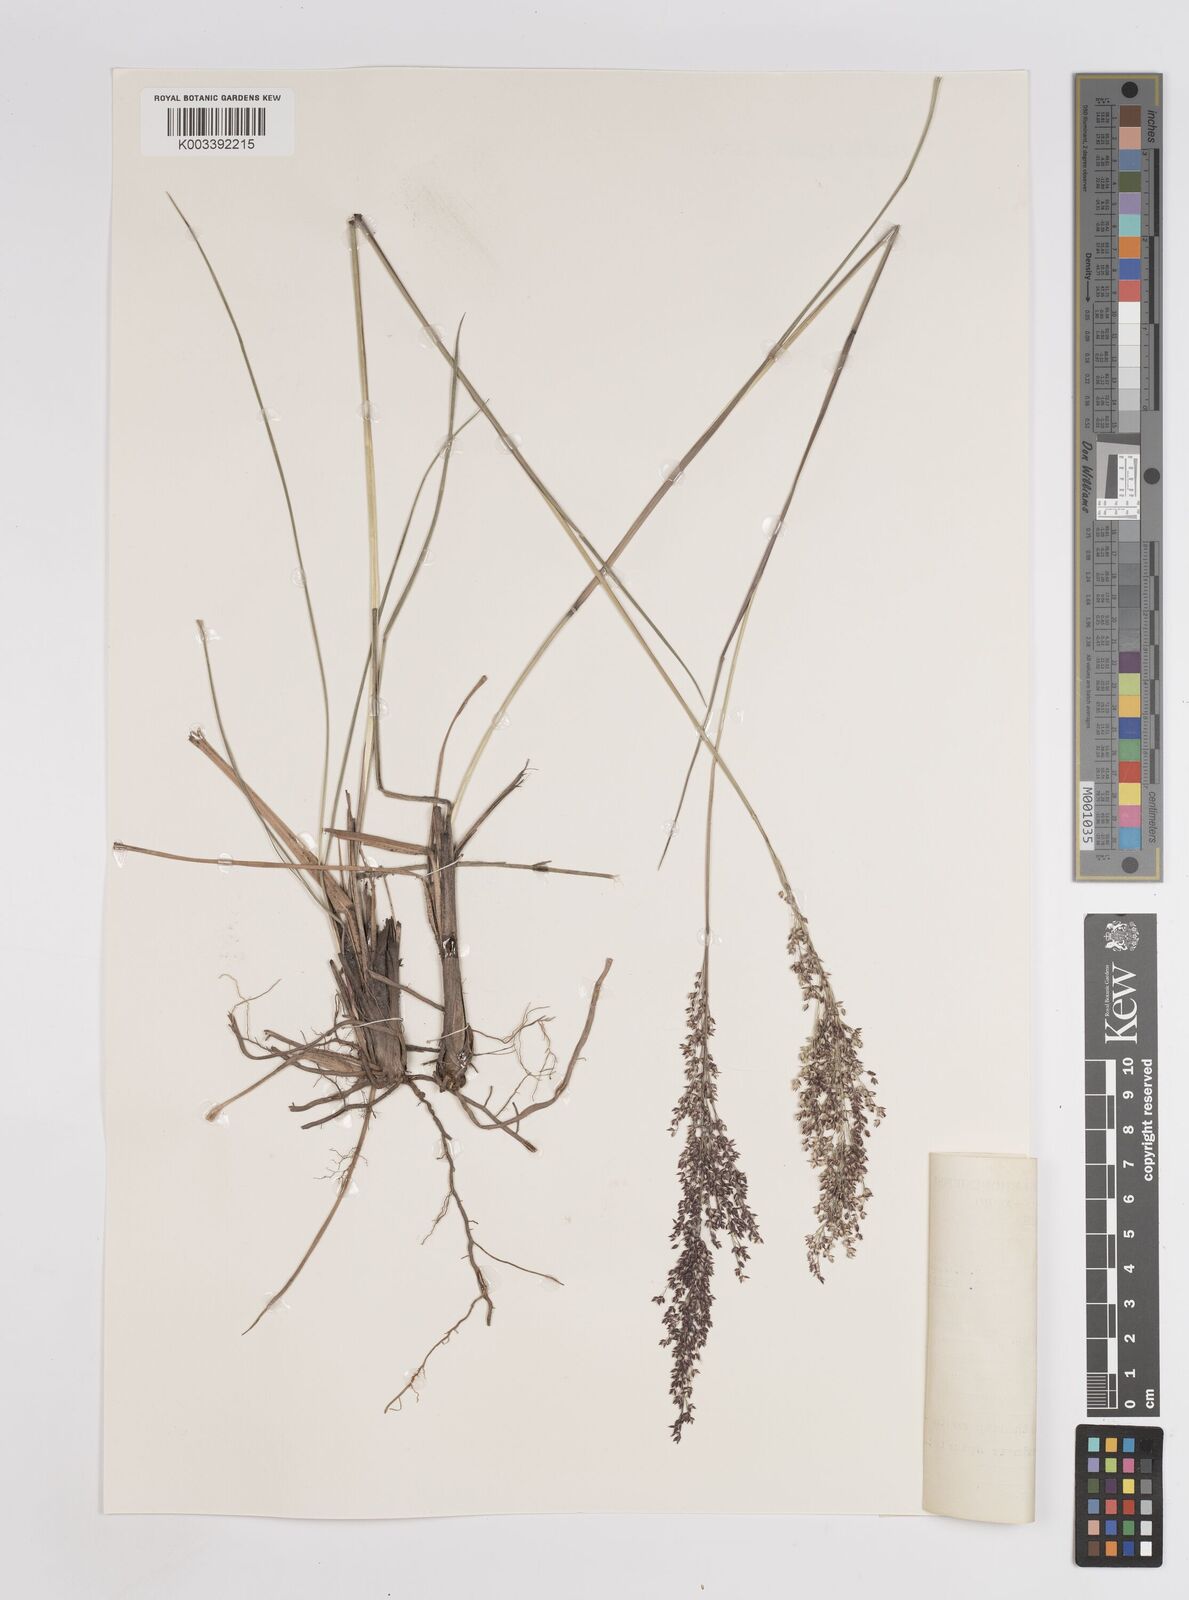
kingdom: Plantae
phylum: Tracheophyta
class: Liliopsida
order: Poales
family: Poaceae
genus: Panicum
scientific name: Panicum dregeanum
